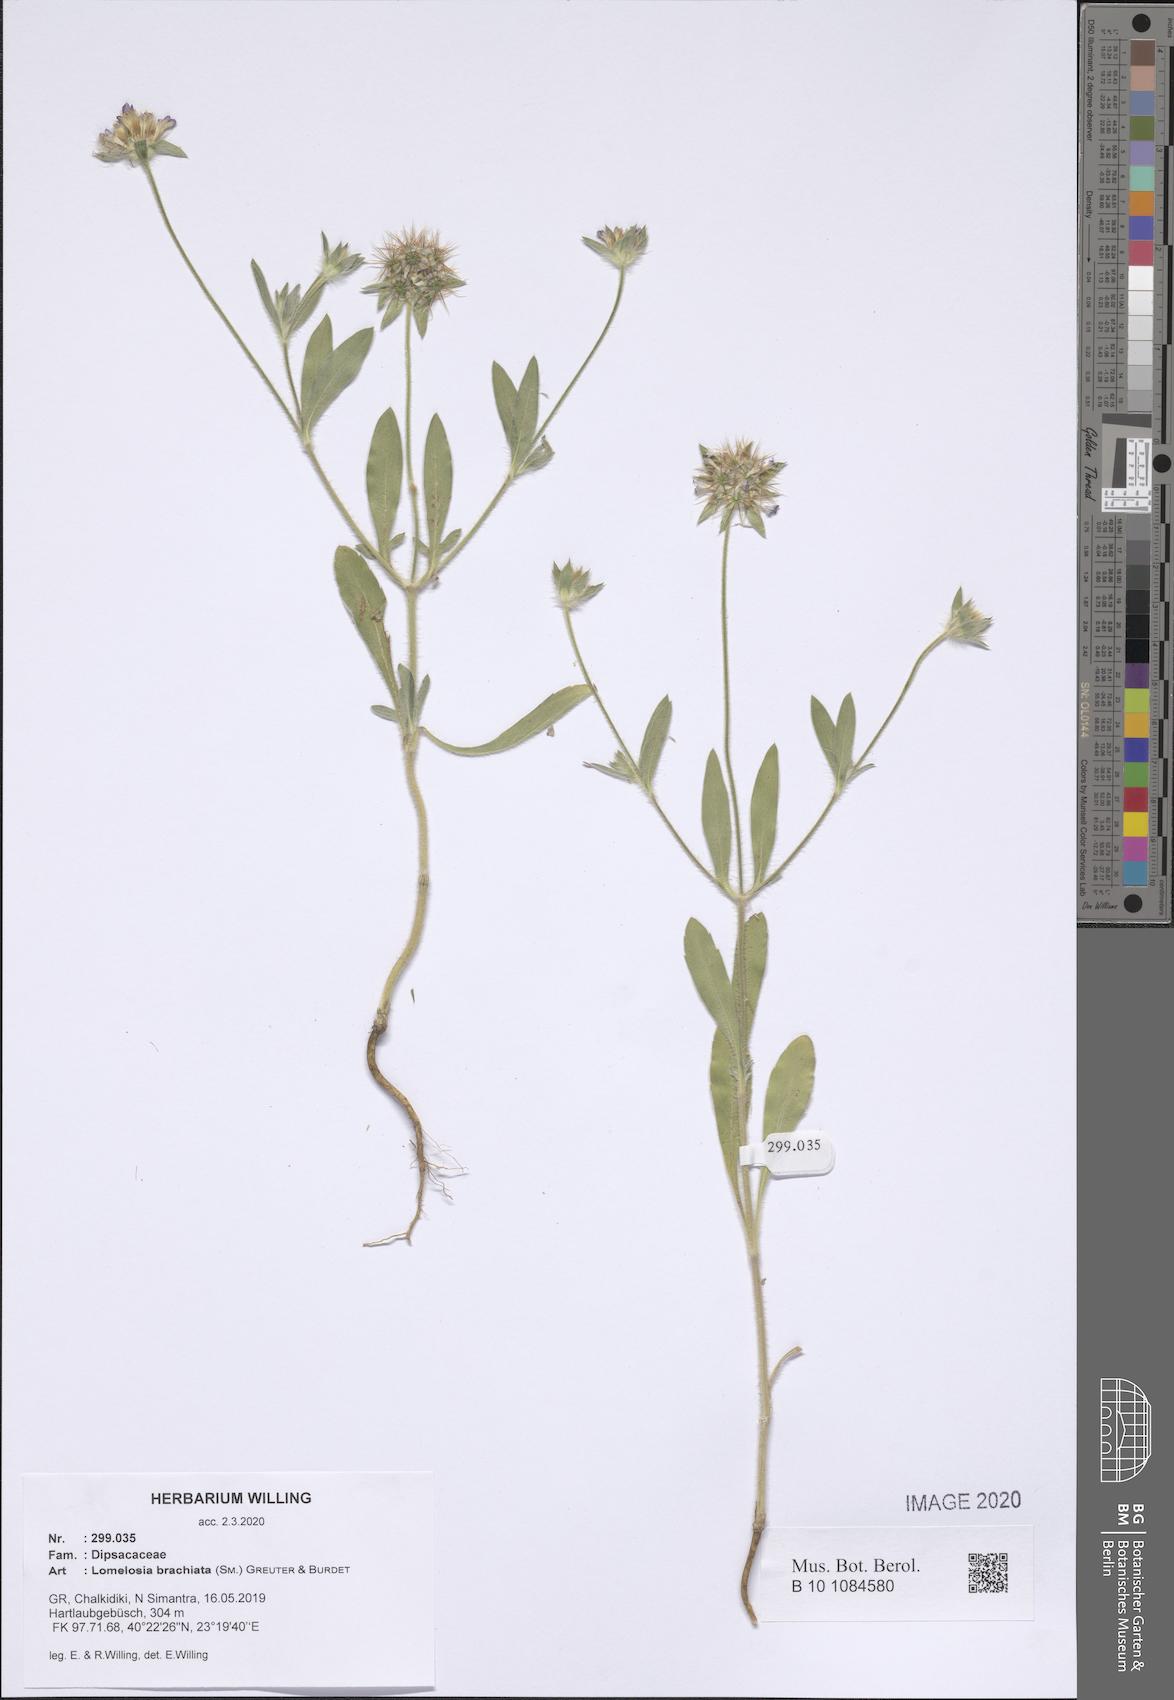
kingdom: Plantae
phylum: Tracheophyta
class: Magnoliopsida
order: Dipsacales
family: Caprifoliaceae
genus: Lomelosia
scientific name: Lomelosia brachiata
